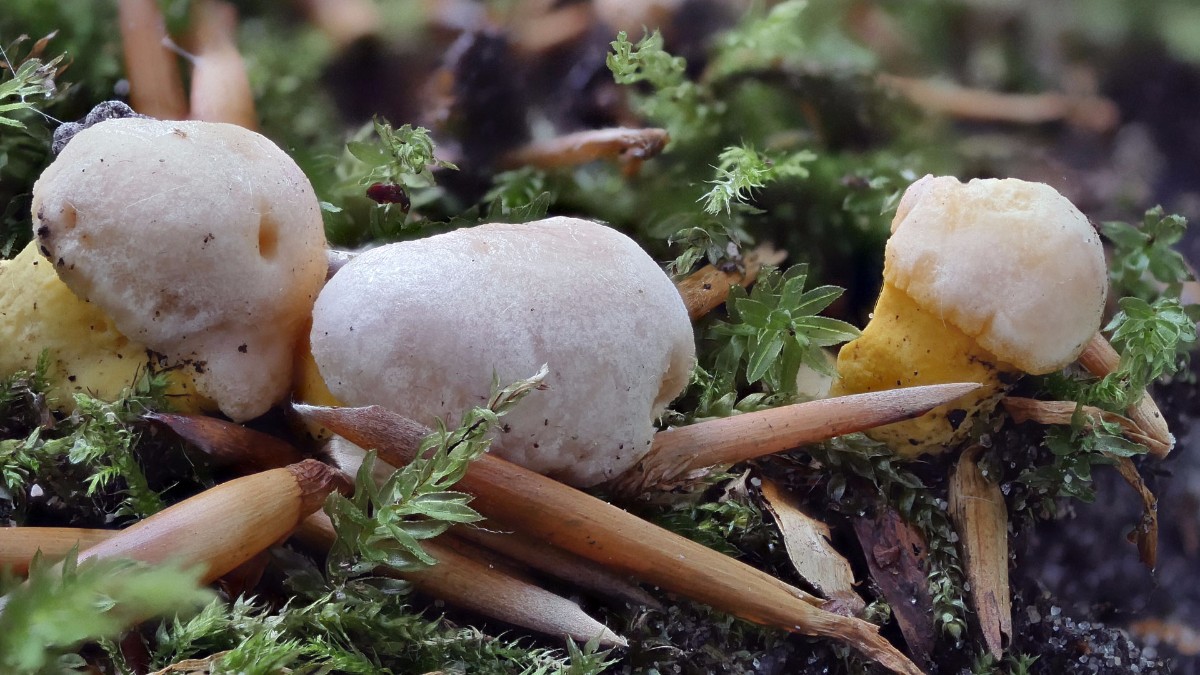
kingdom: Fungi
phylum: Basidiomycota
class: Agaricomycetes
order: Cantharellales
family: Hydnaceae
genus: Cantharellus
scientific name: Cantharellus pallens
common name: bleg kantarel
